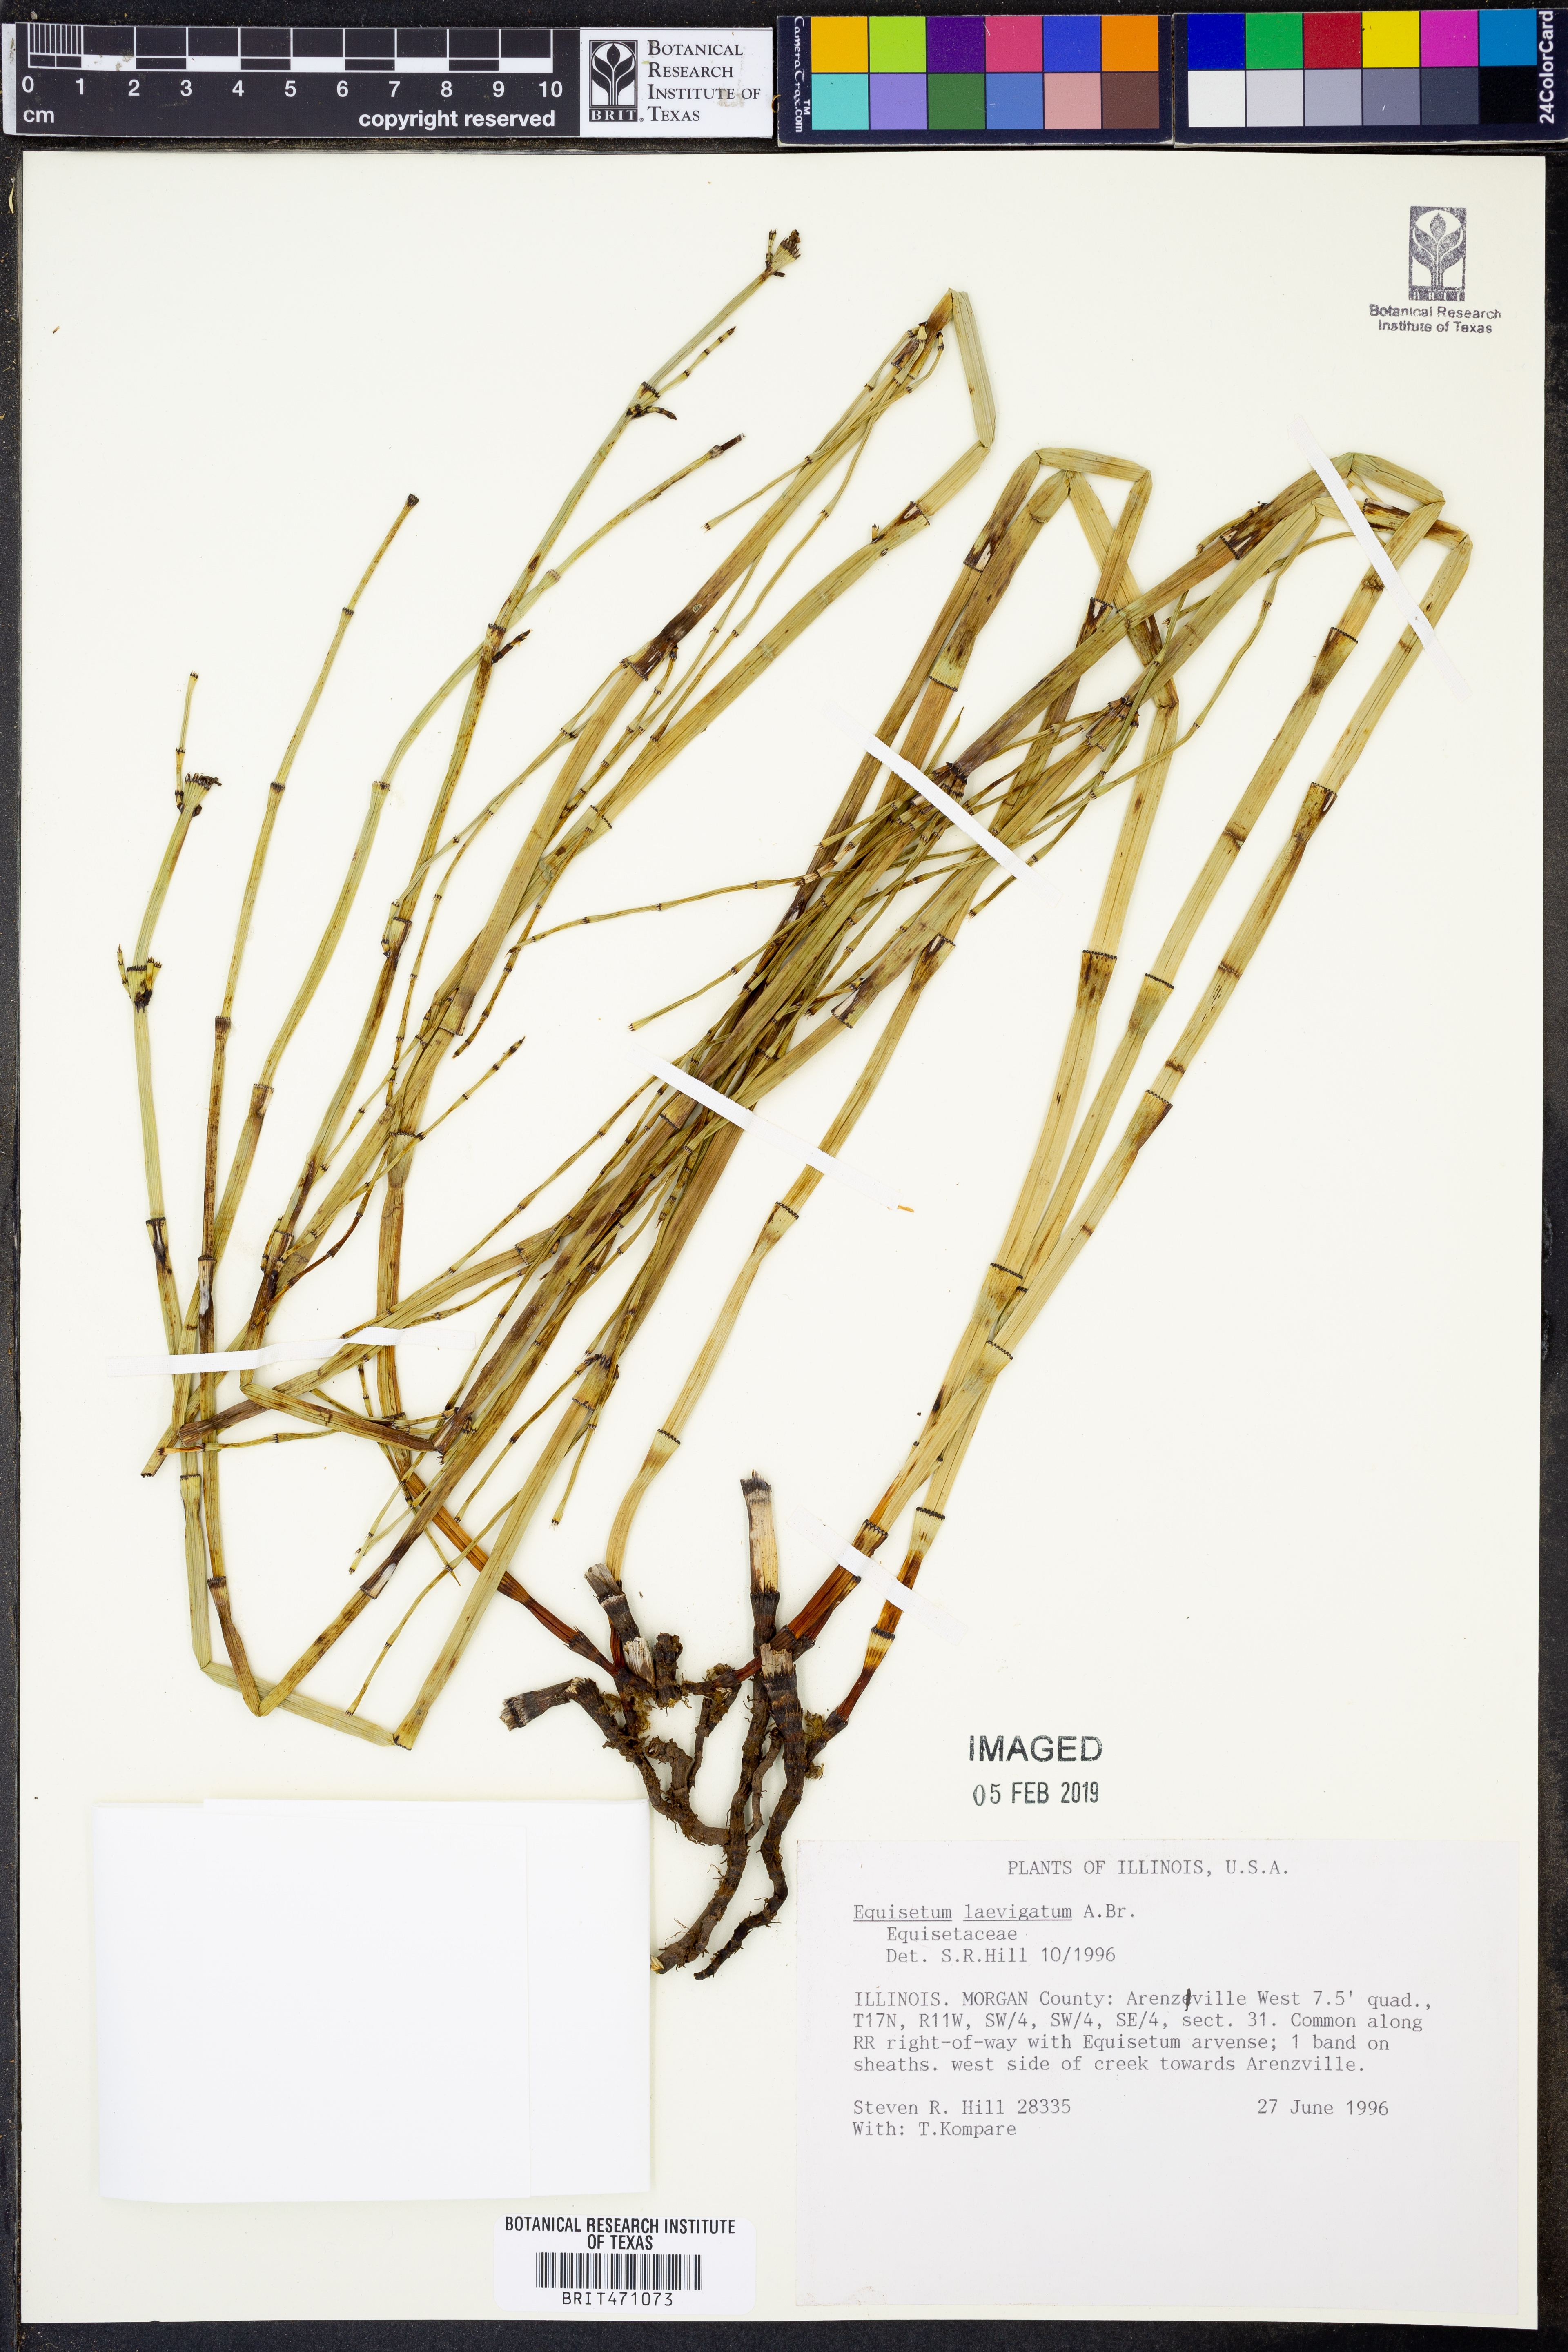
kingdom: Plantae
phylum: Tracheophyta
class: Polypodiopsida
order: Equisetales
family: Equisetaceae
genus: Equisetum
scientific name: Equisetum laevigatum
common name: Smooth scouring-rush
